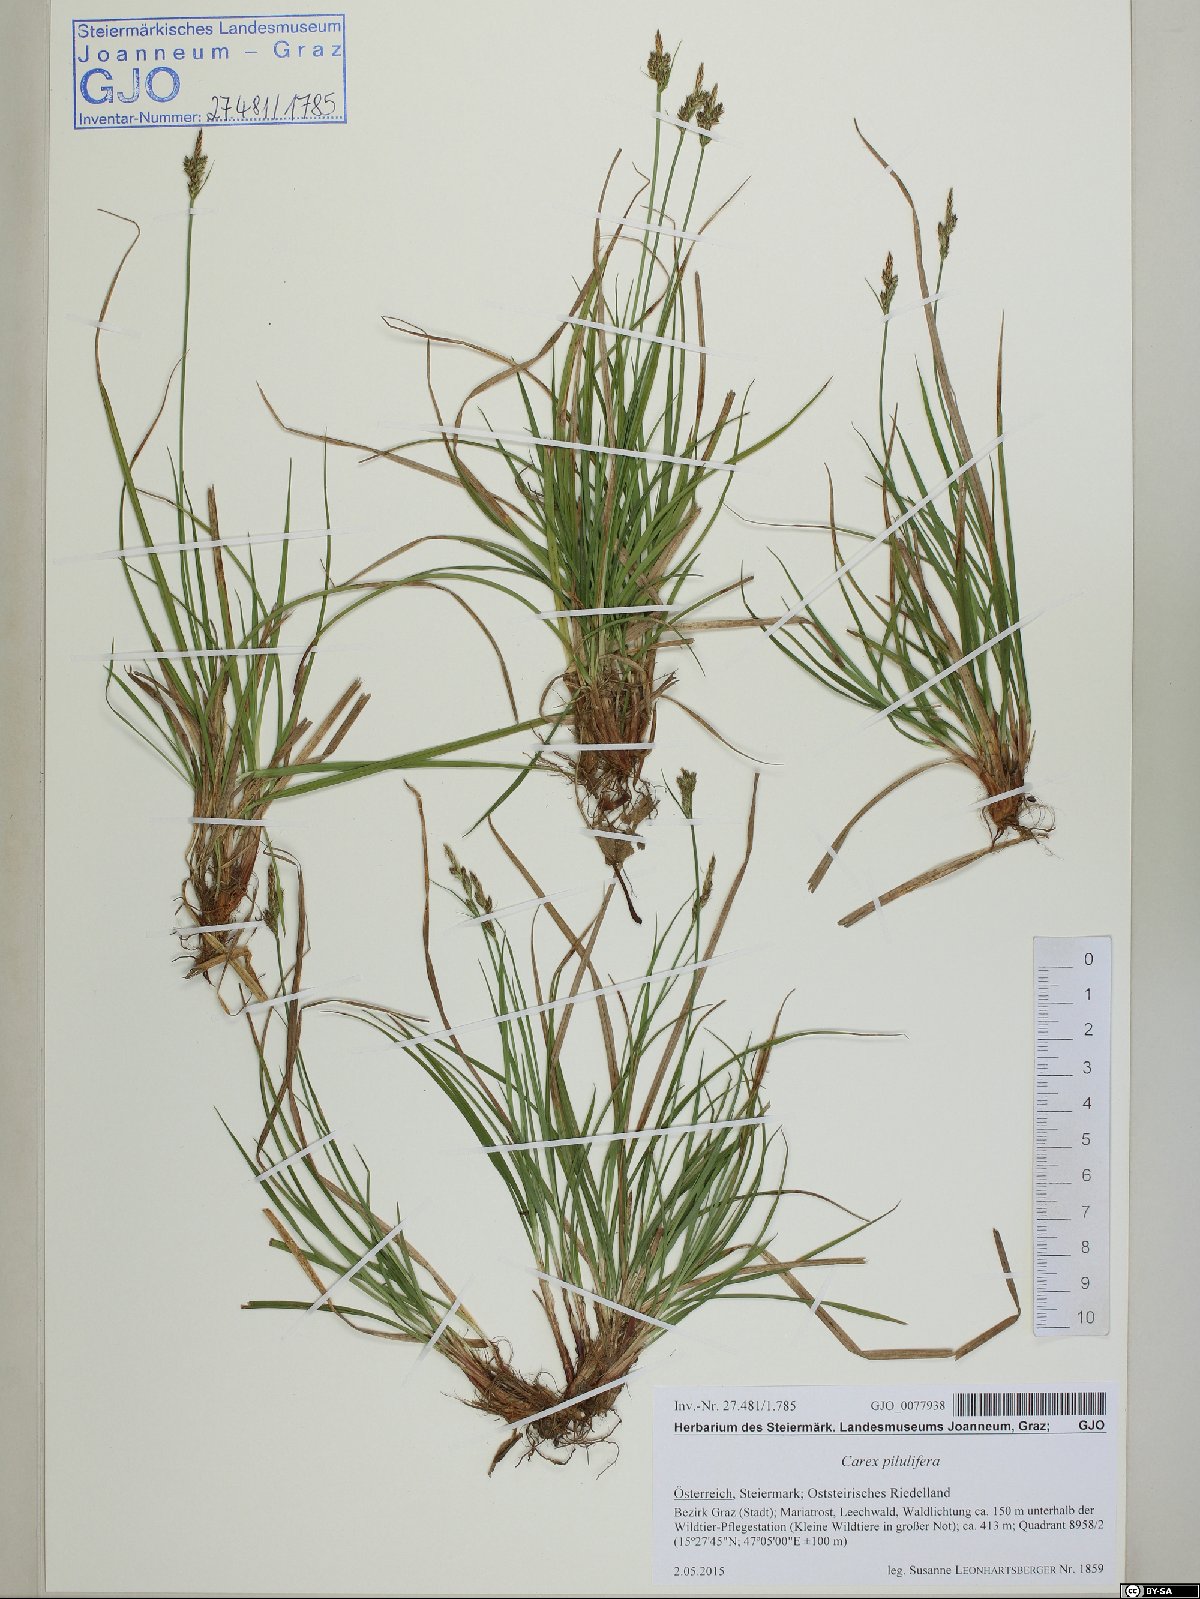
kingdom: Plantae
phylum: Tracheophyta
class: Liliopsida
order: Poales
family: Cyperaceae
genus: Carex
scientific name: Carex pilulifera
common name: Pill sedge
